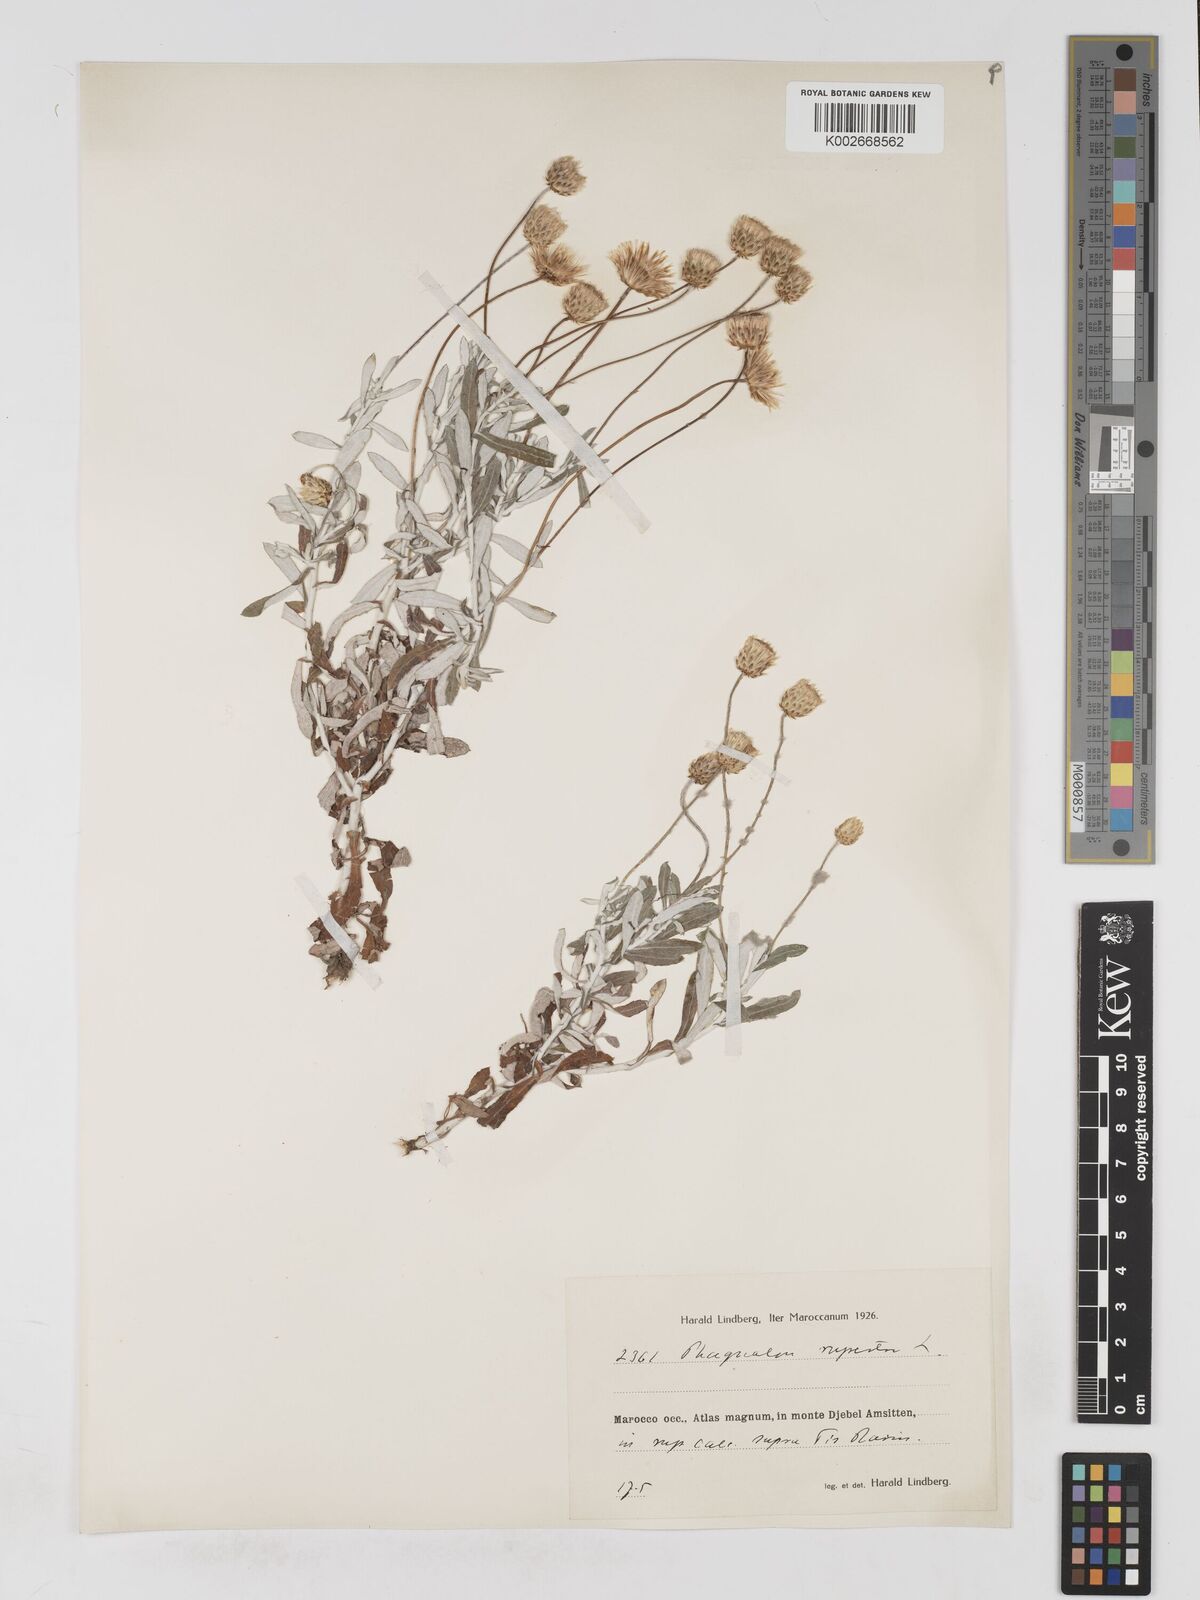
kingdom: Plantae
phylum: Tracheophyta
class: Magnoliopsida
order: Asterales
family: Asteraceae
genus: Phagnalon
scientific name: Phagnalon rupestre
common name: Rock phagnalon
